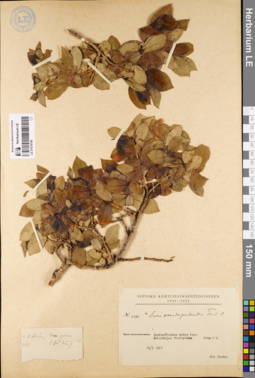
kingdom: Plantae
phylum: Tracheophyta
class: Magnoliopsida
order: Malpighiales
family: Salicaceae
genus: Salix
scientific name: Salix pseudopentandra
